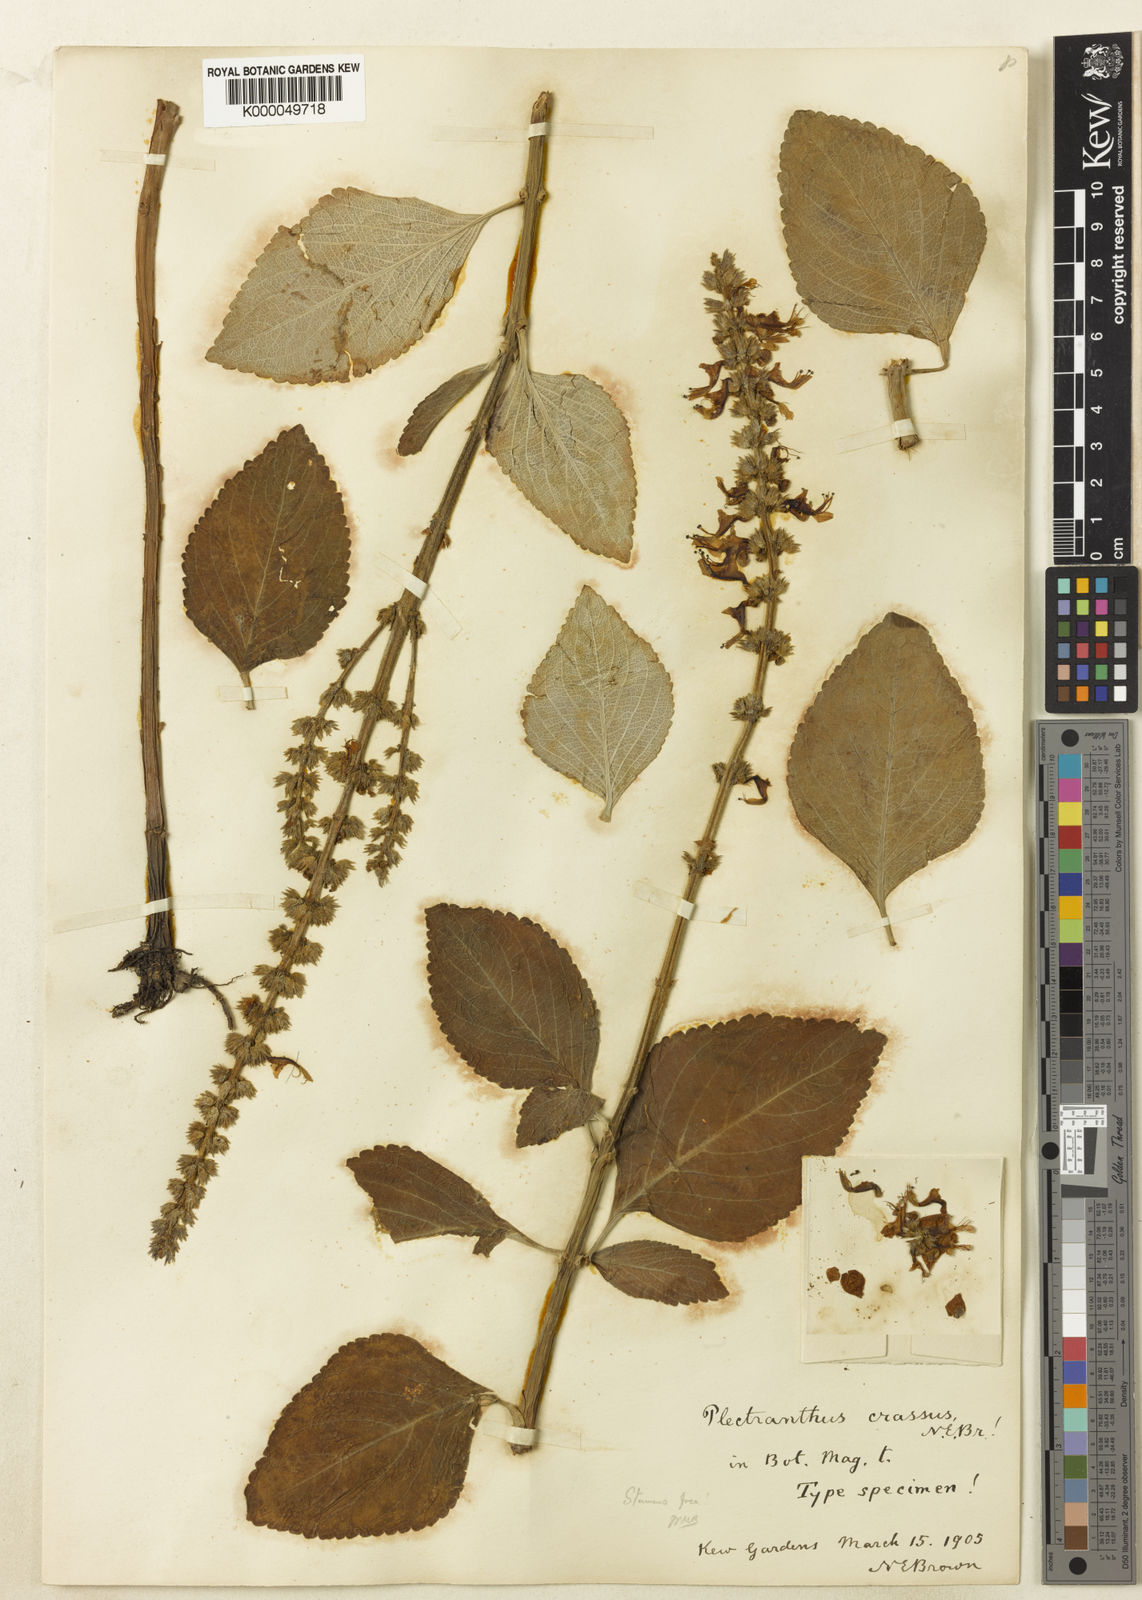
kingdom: Plantae
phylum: Tracheophyta
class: Magnoliopsida
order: Lamiales
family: Lamiaceae
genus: Coleus
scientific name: Coleus crassus
